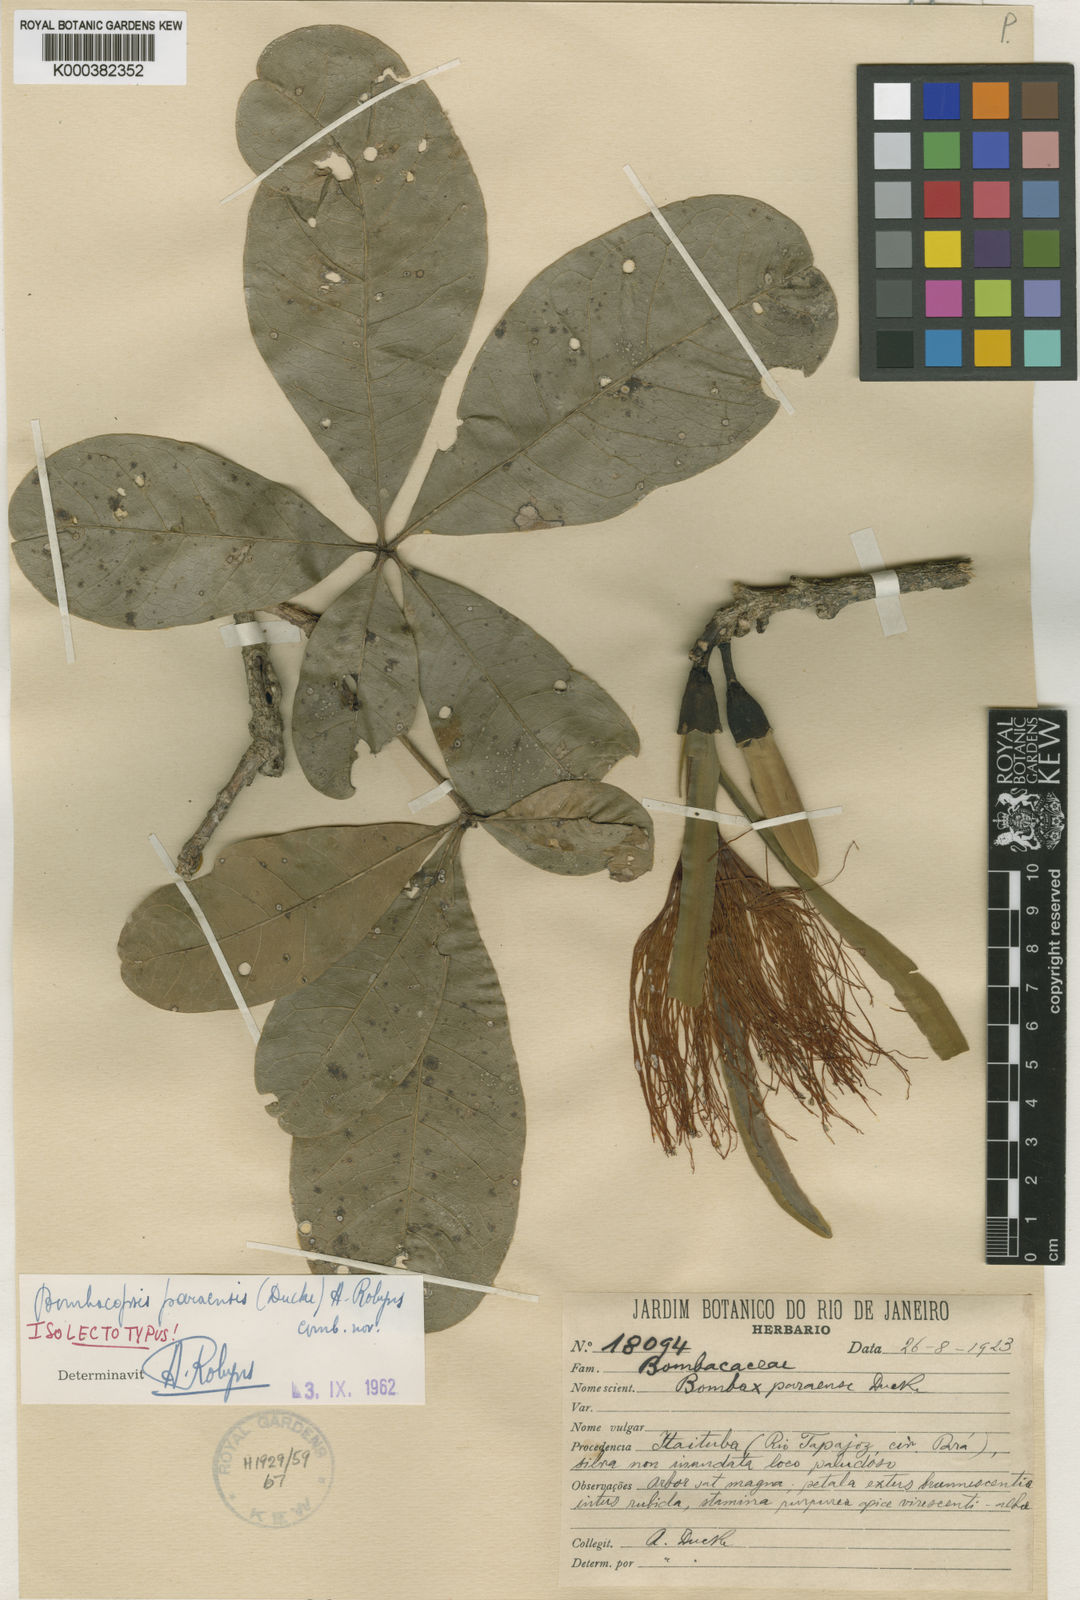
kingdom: Plantae
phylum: Tracheophyta
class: Magnoliopsida
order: Malvales
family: Malvaceae
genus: Pachira
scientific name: Pachira paraensis
